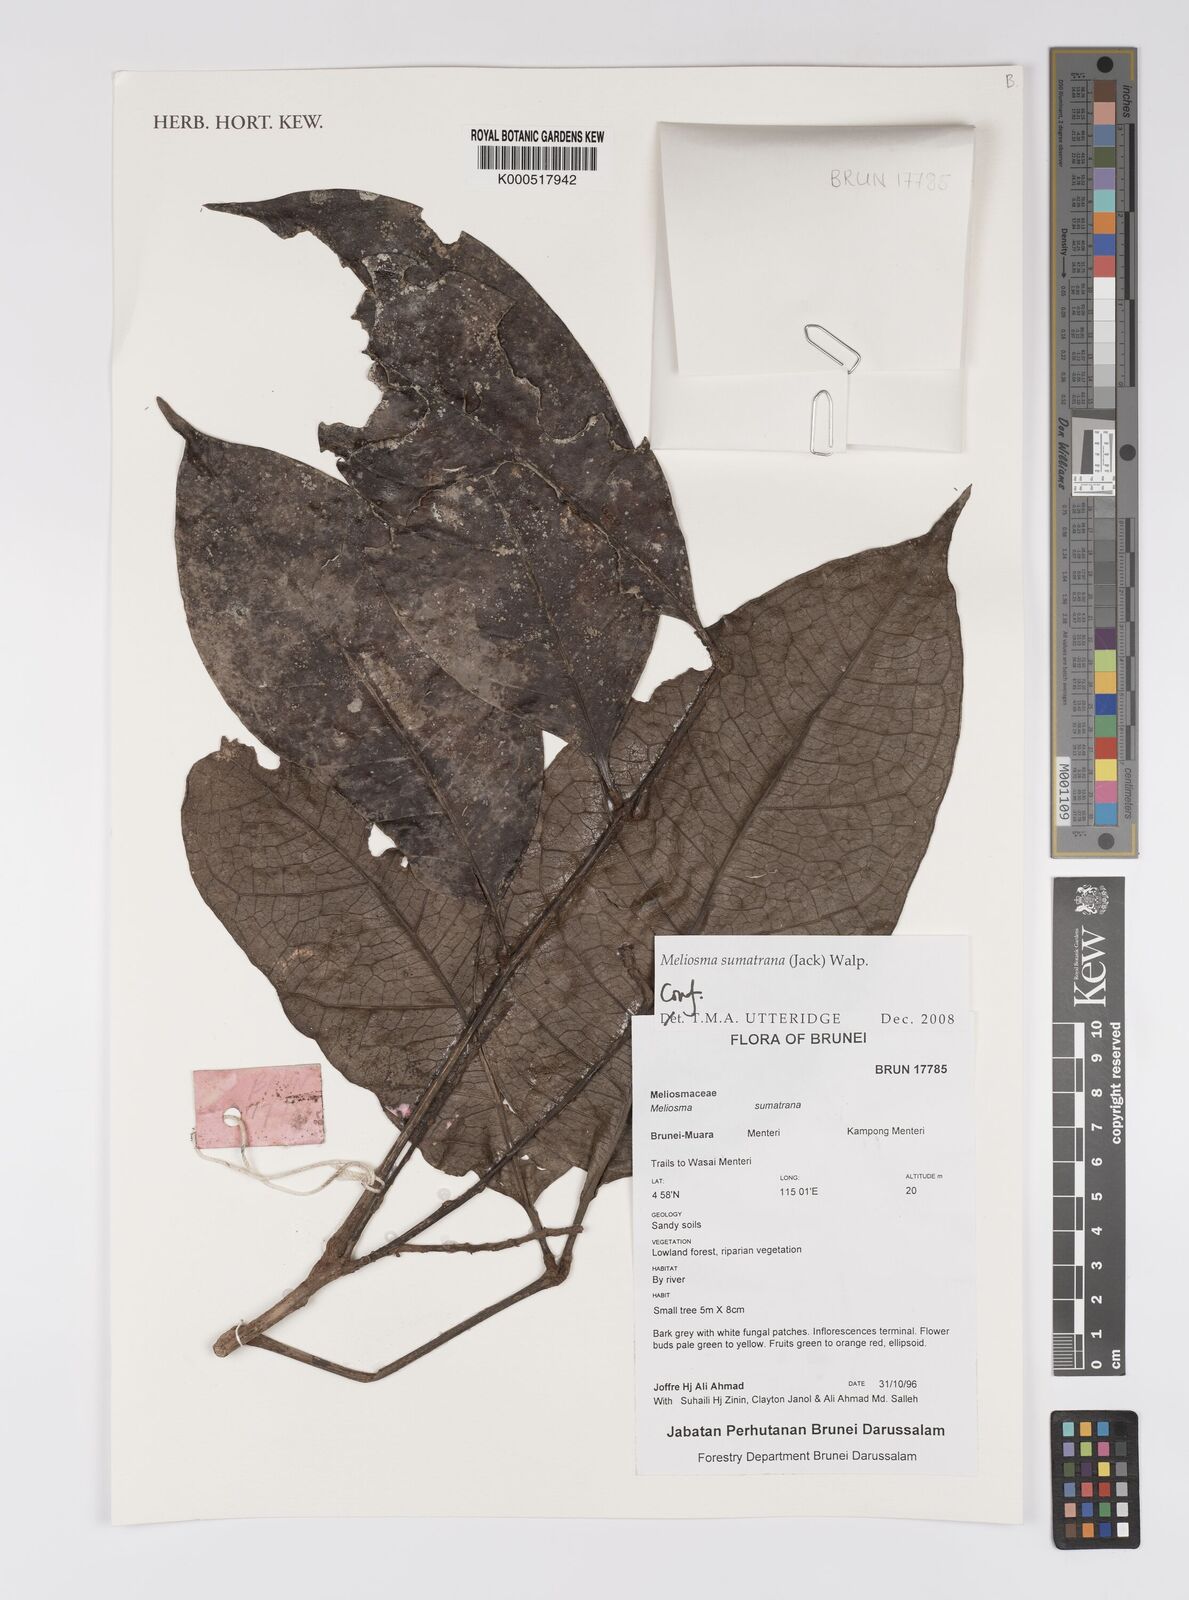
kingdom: Plantae
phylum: Tracheophyta
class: Magnoliopsida
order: Proteales
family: Sabiaceae
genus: Meliosma
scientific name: Meliosma sumatrana
